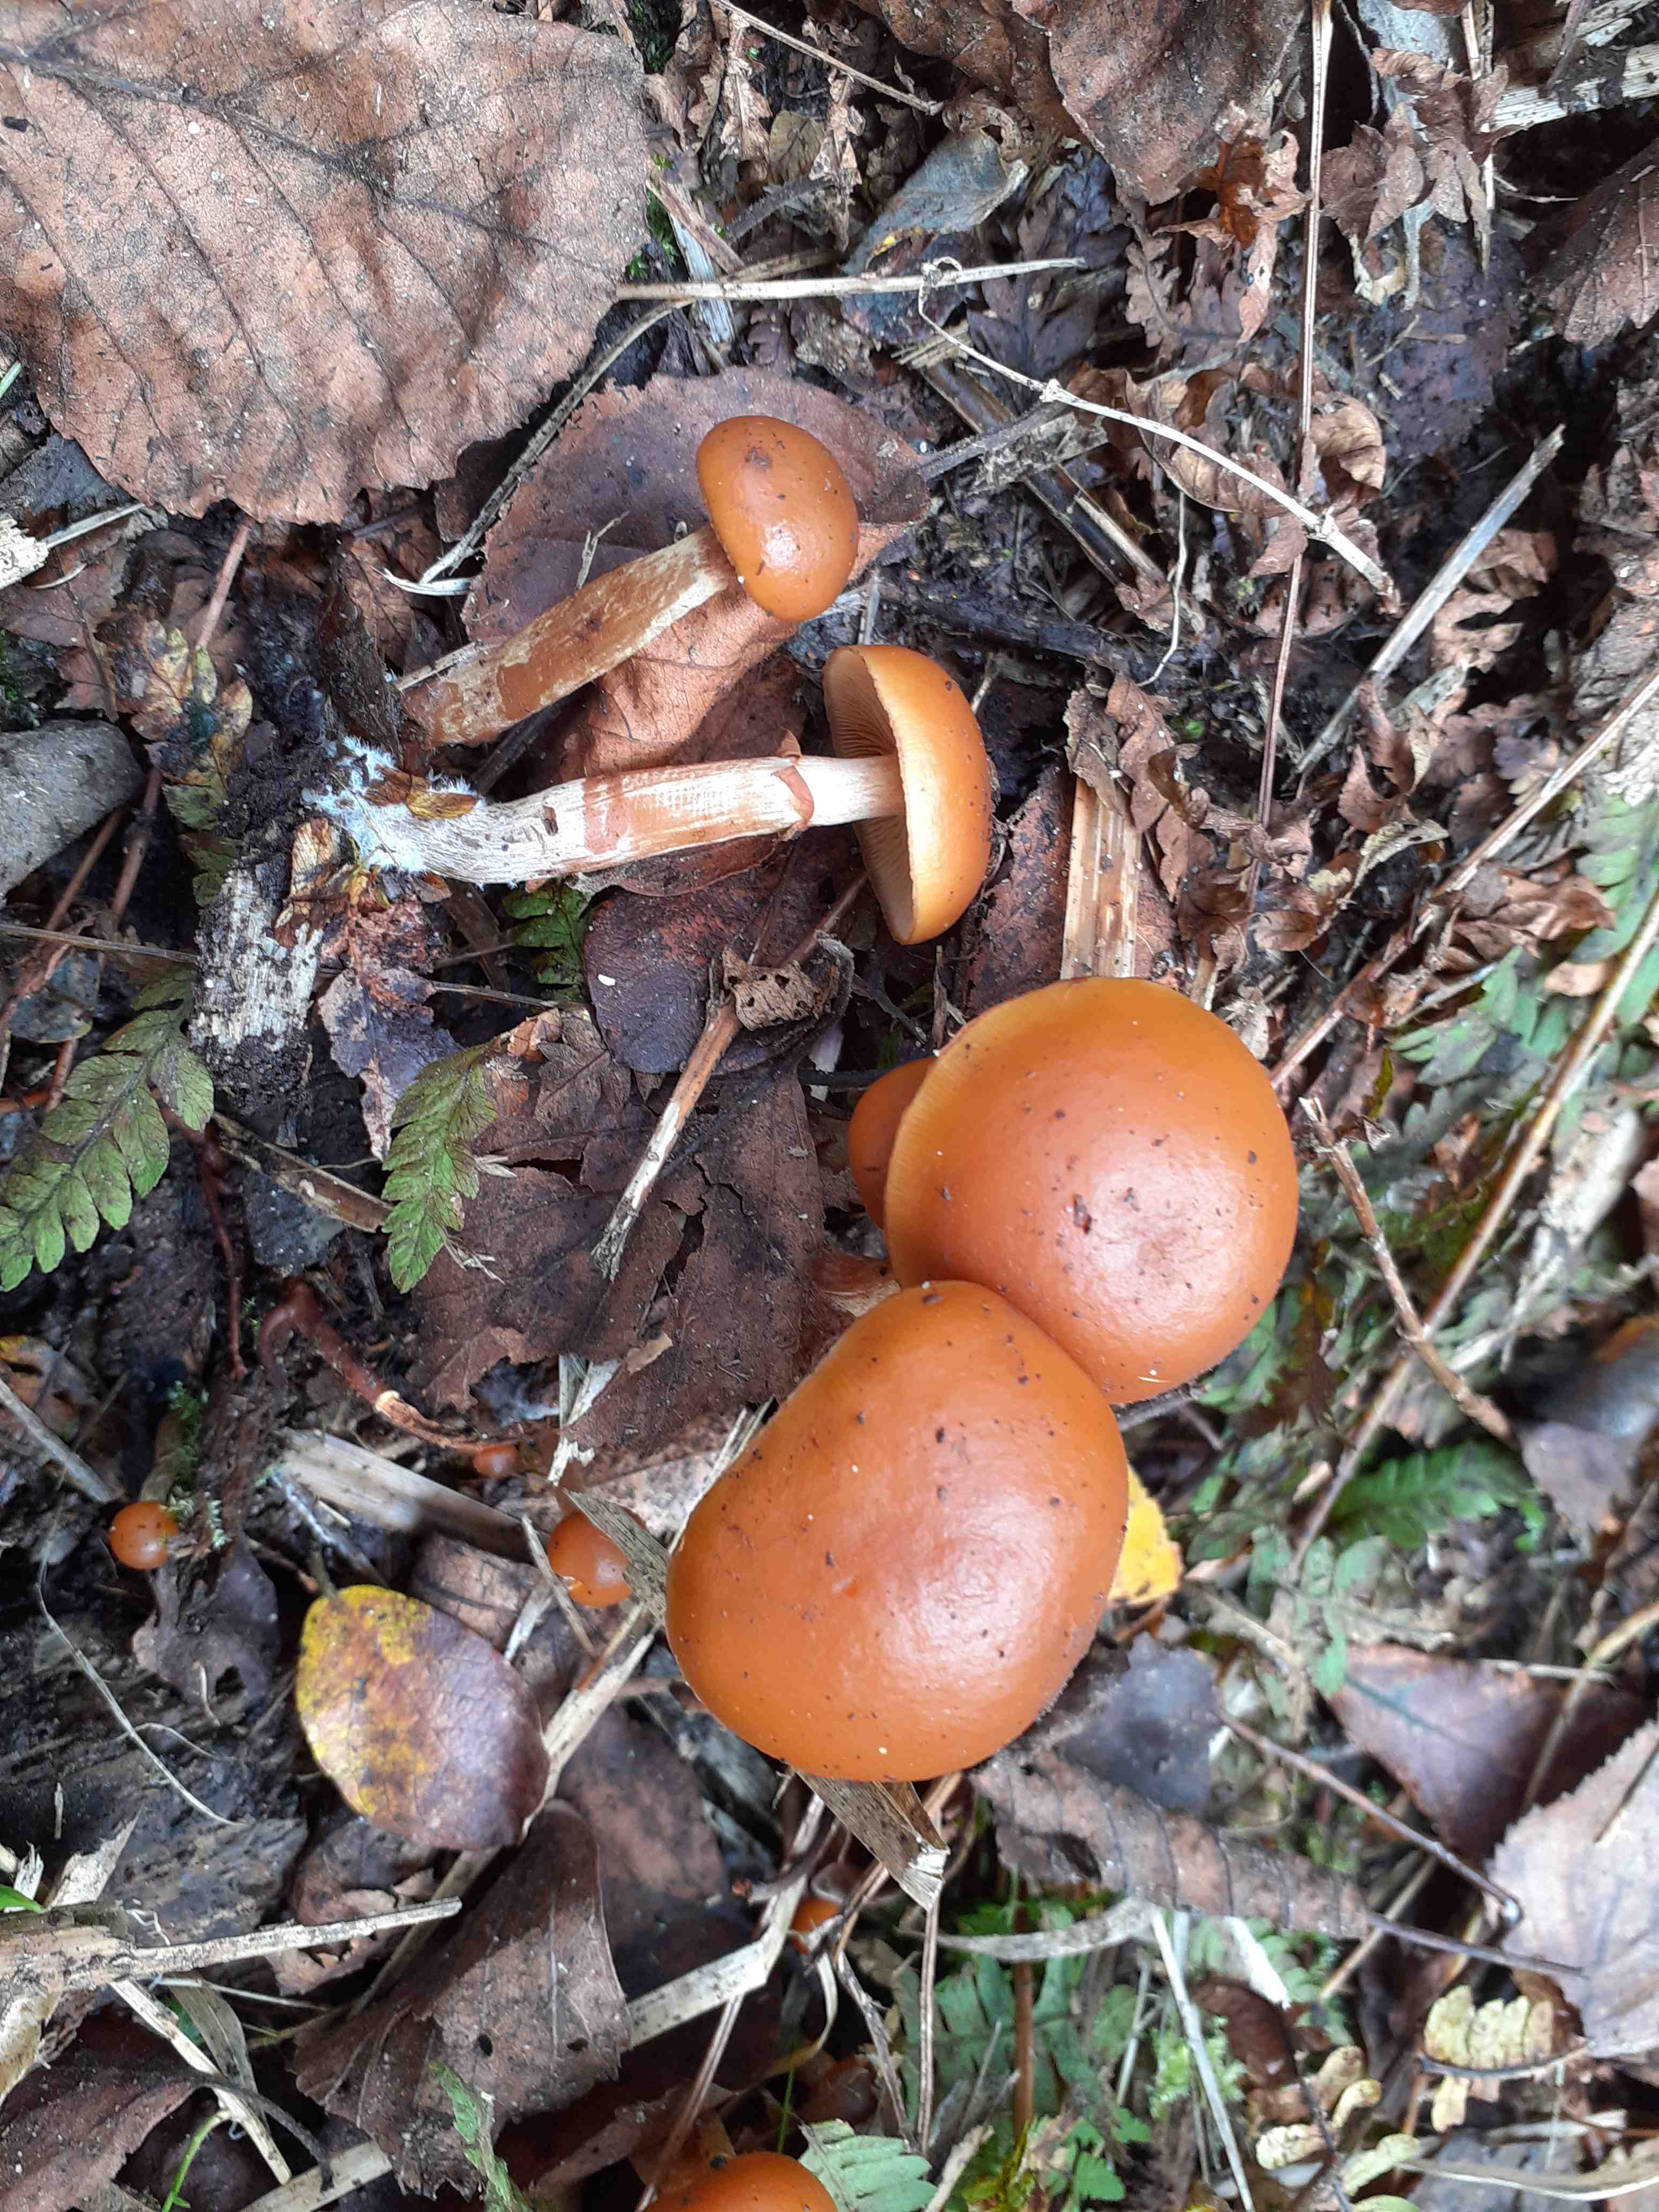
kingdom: Fungi
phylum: Basidiomycota
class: Agaricomycetes
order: Agaricales
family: Hymenogastraceae
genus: Galerina
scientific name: Galerina marginata
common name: randbæltet hjelmhat
